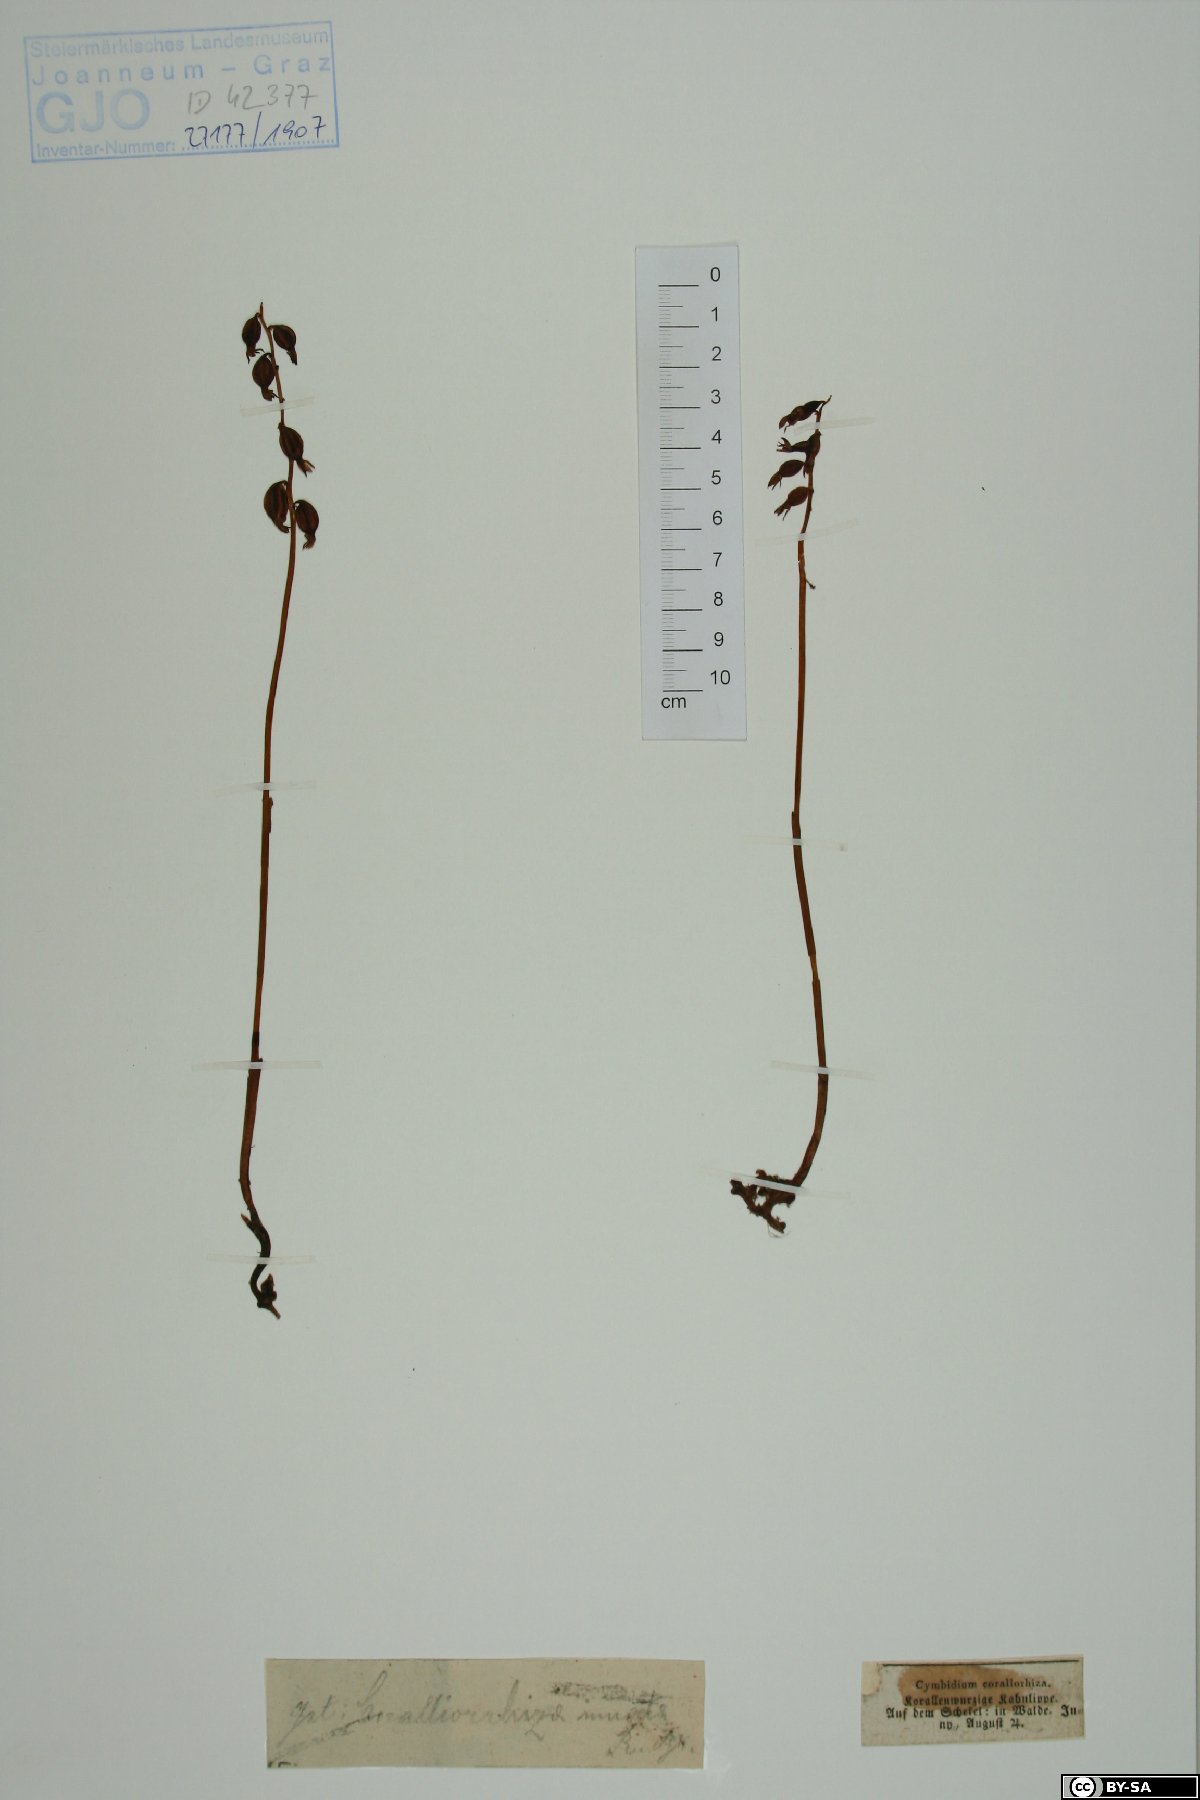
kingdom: Plantae
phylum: Tracheophyta
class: Liliopsida
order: Asparagales
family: Orchidaceae
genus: Corallorhiza
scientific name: Corallorhiza trifida
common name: Yellow coralroot
